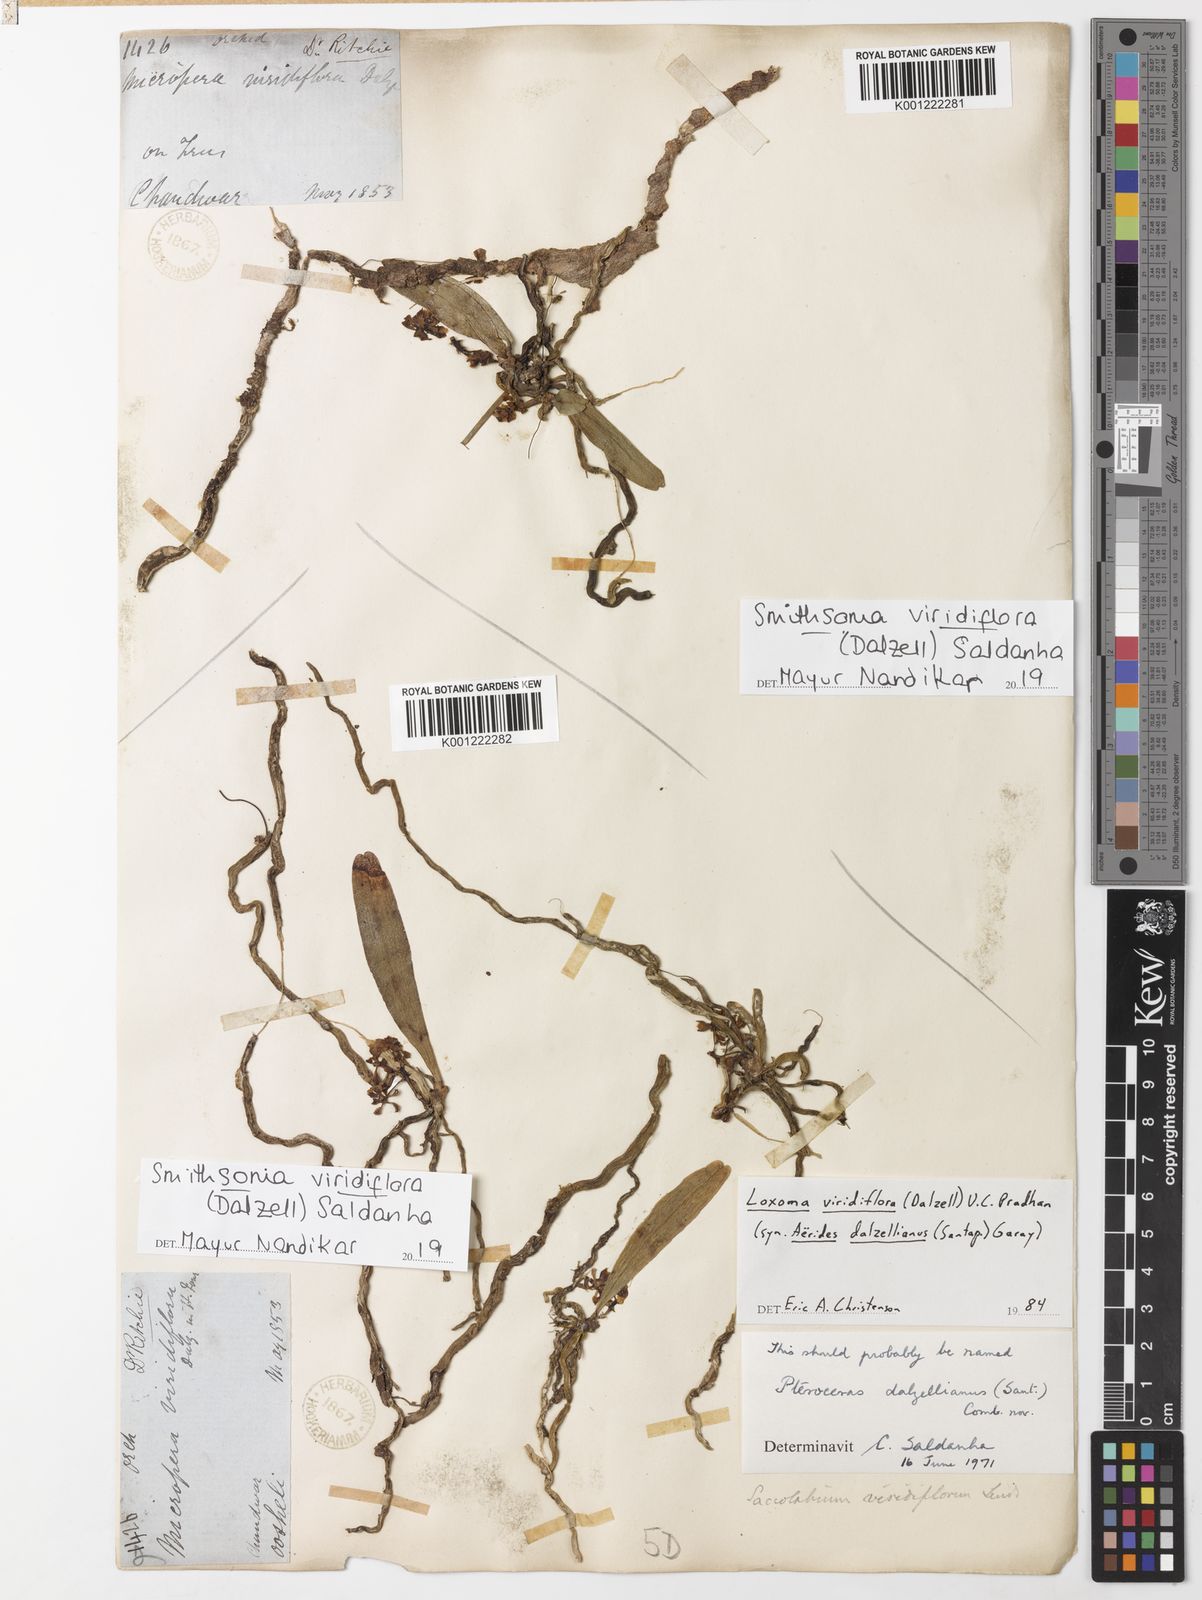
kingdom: Plantae
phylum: Tracheophyta
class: Liliopsida
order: Asparagales
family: Orchidaceae
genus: Smithsonia
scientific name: Smithsonia viridiflora
